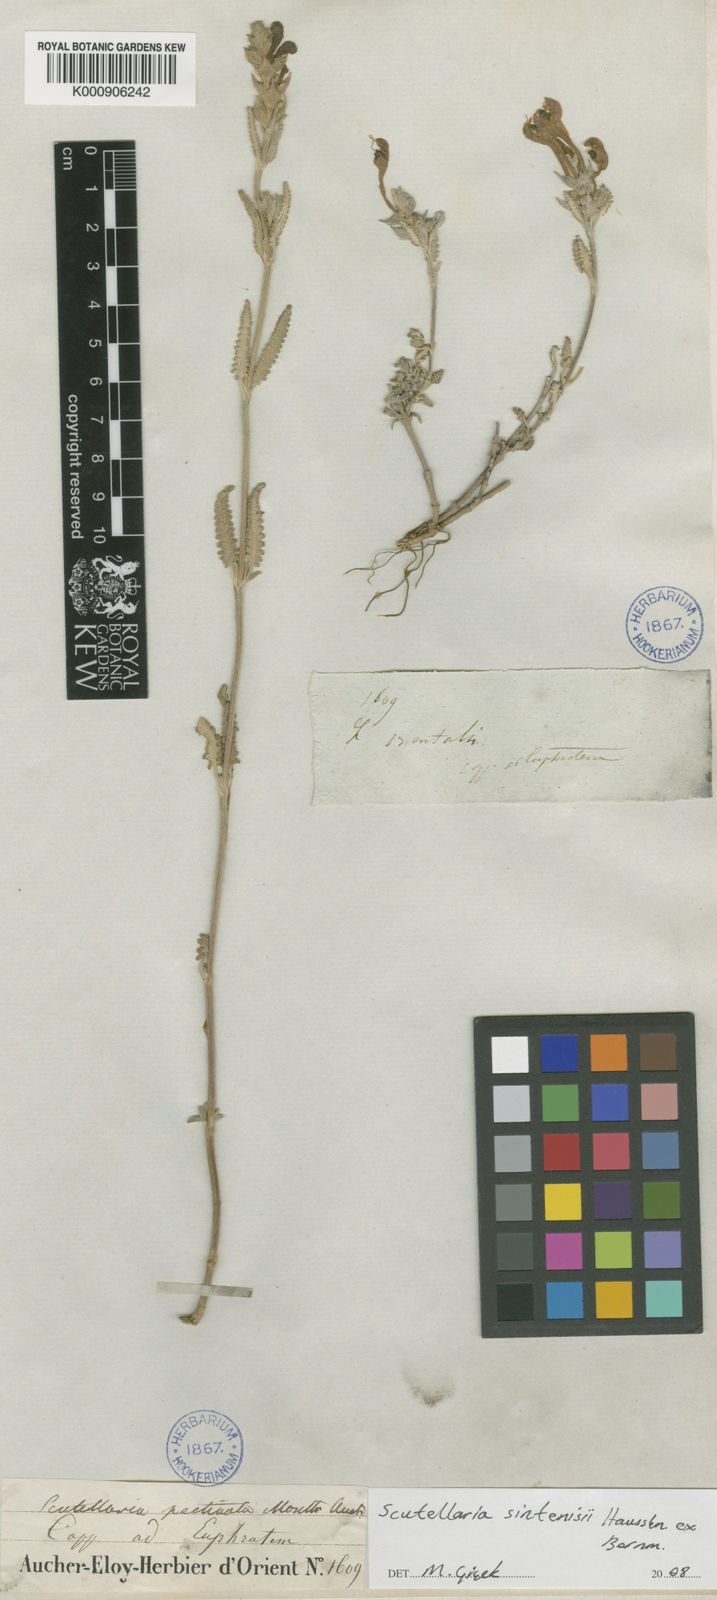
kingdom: Plantae
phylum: Tracheophyta
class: Magnoliopsida
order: Lamiales
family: Lamiaceae
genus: Scutellaria
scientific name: Scutellaria orientalis
